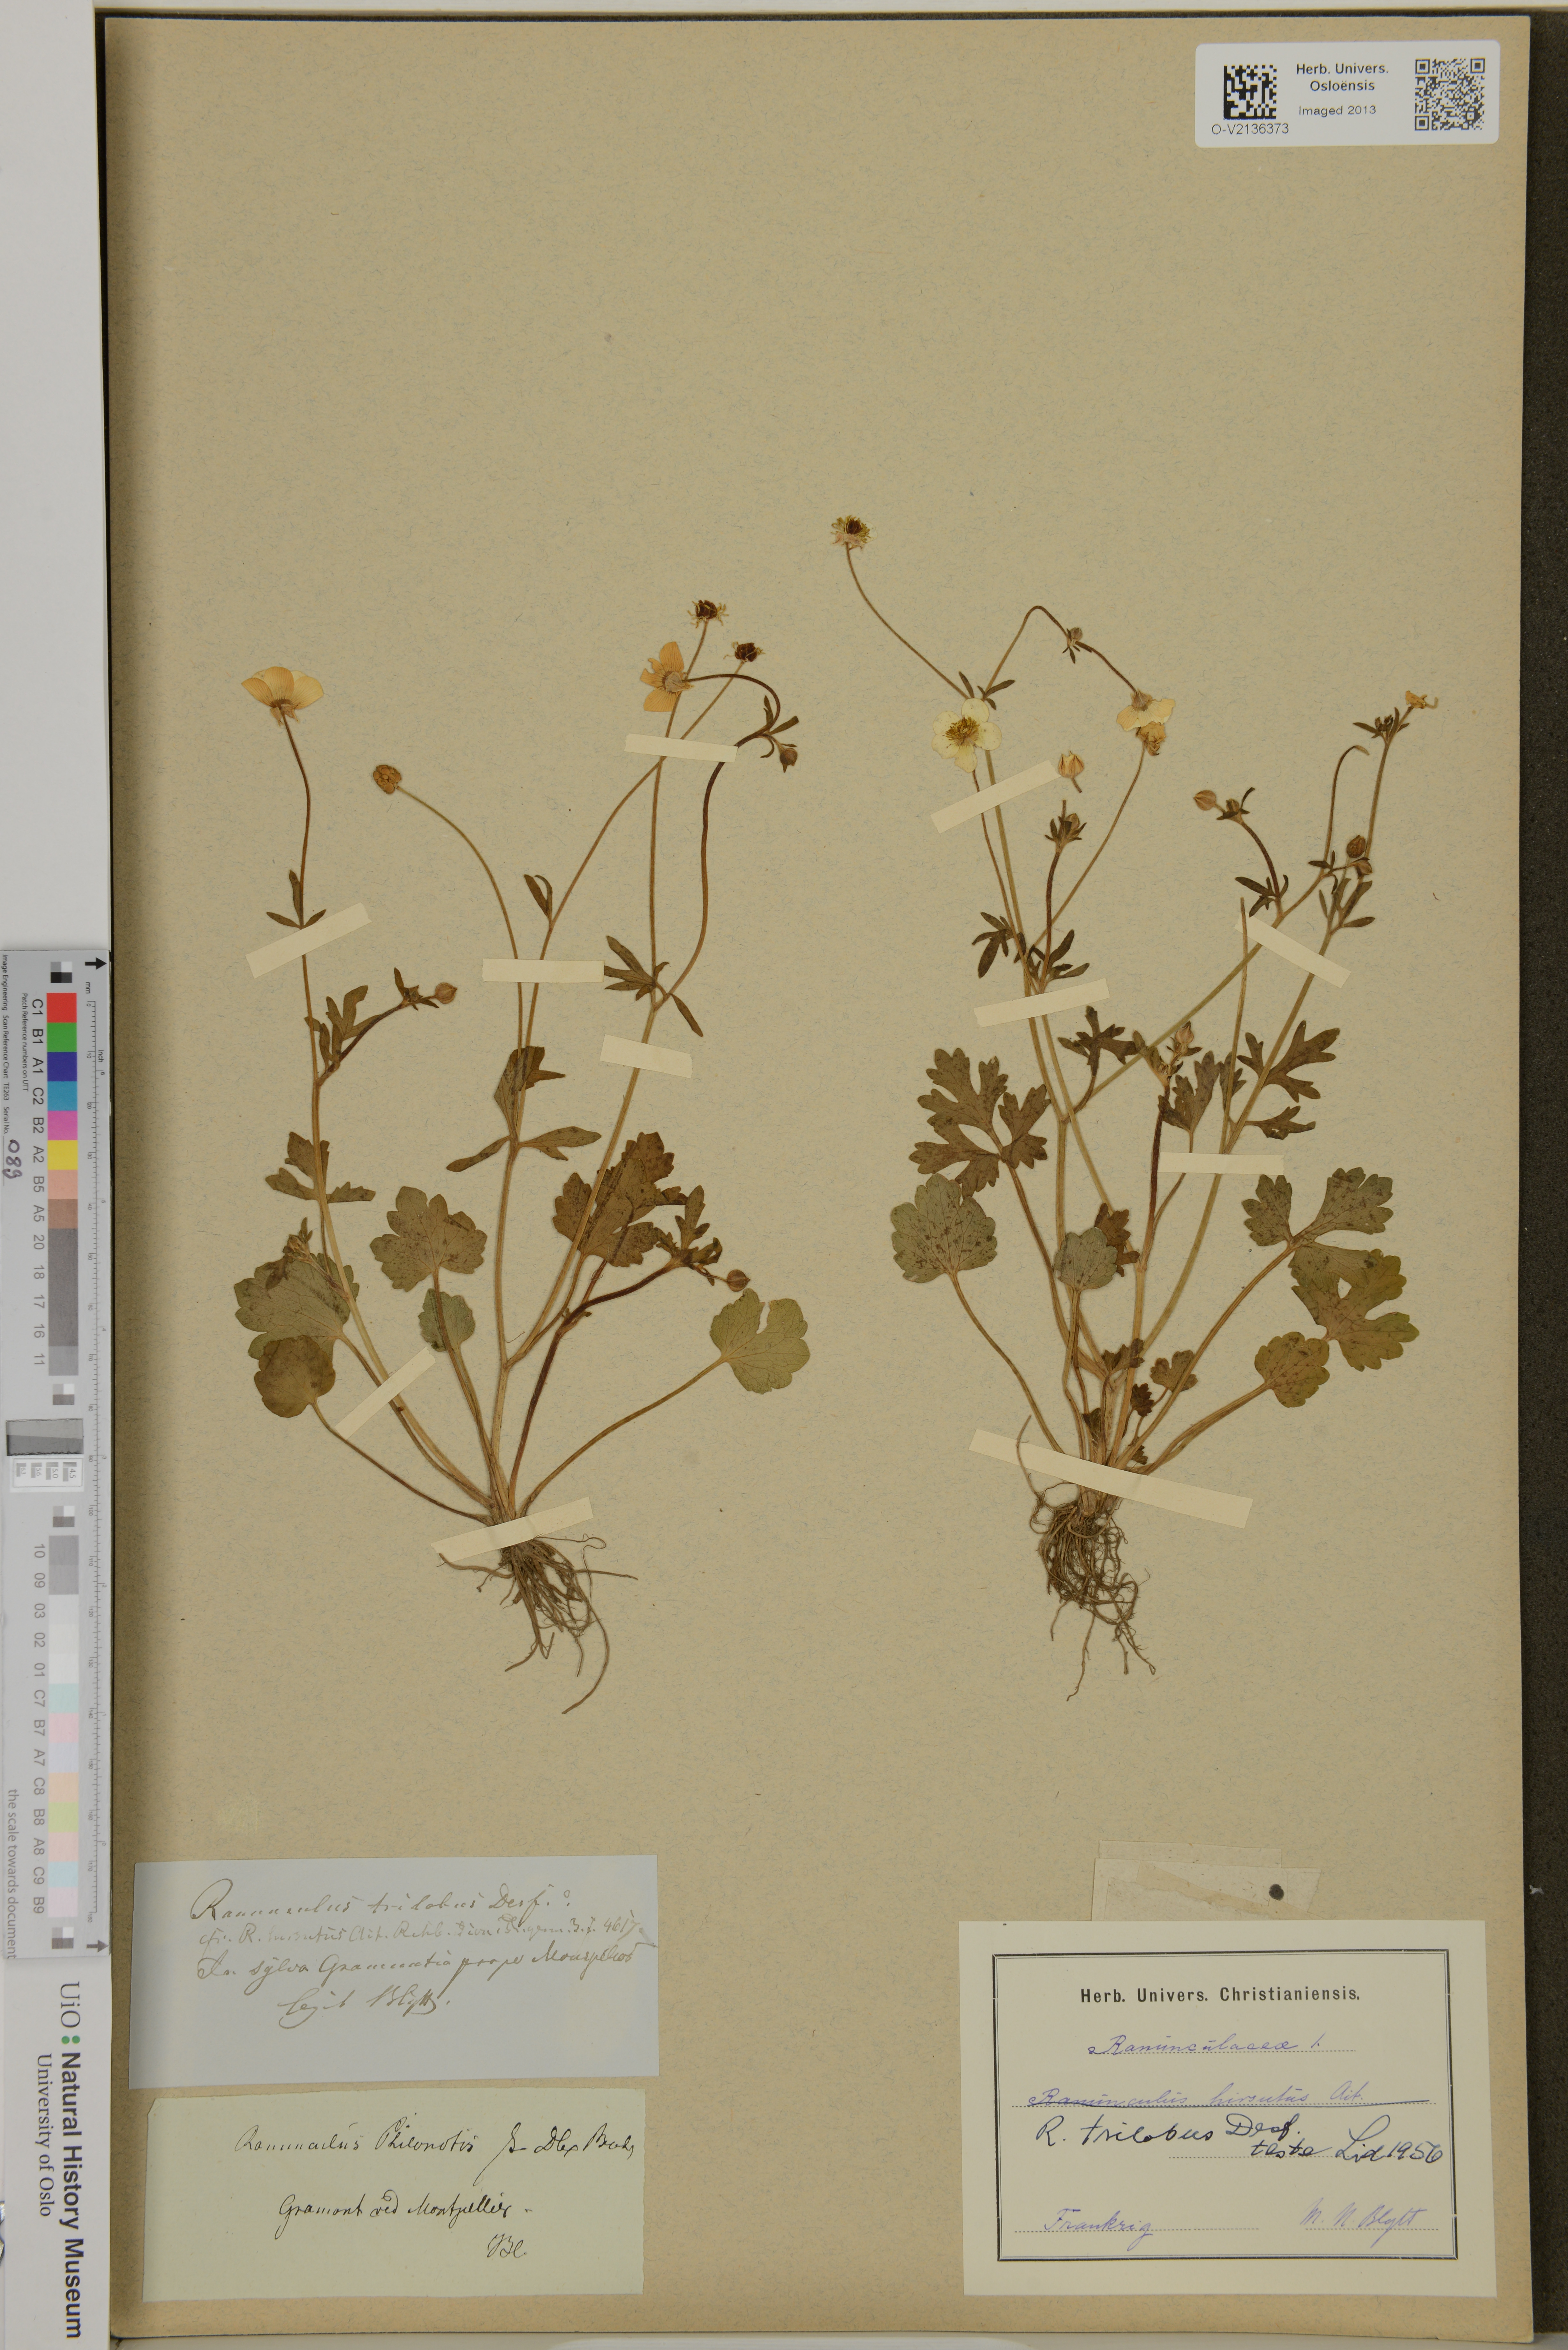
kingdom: Plantae
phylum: Tracheophyta
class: Magnoliopsida
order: Ranunculales
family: Ranunculaceae
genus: Ranunculus
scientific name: Ranunculus trilobus
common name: Threelobe buttercup
